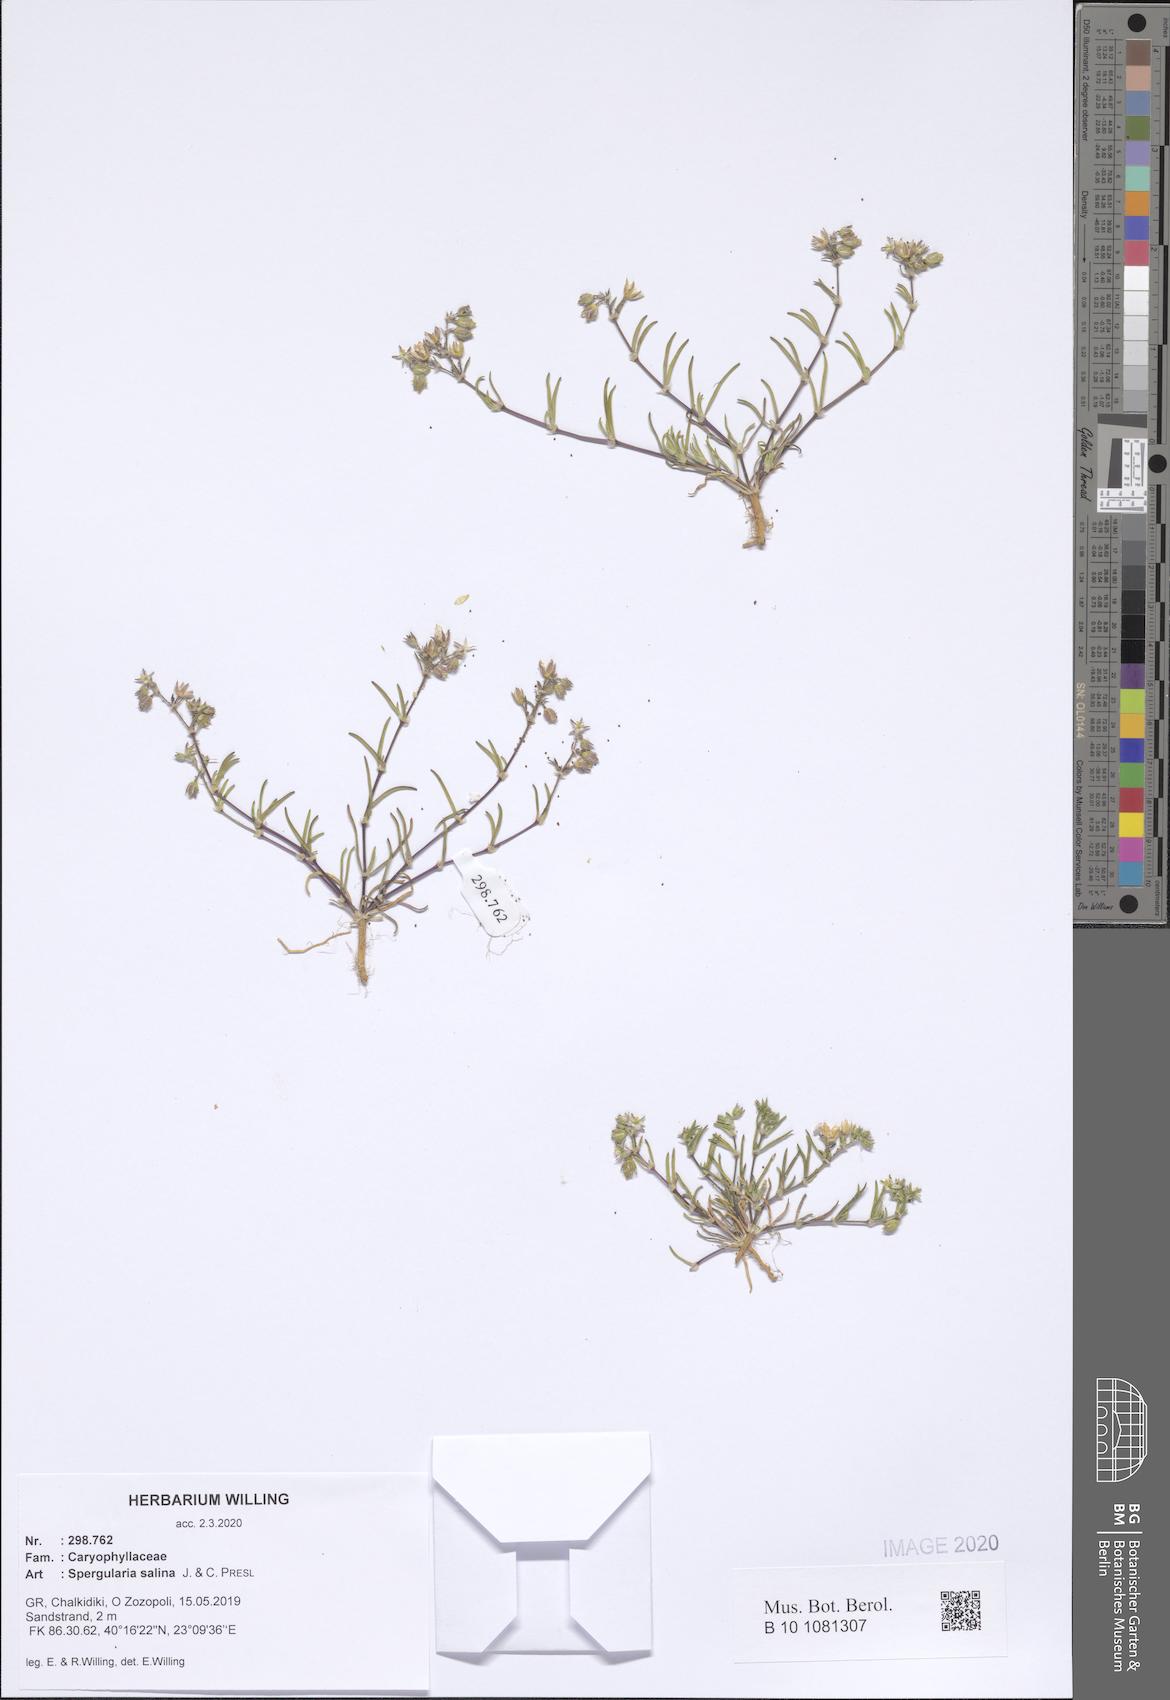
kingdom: Plantae
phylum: Tracheophyta
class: Magnoliopsida
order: Caryophyllales
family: Caryophyllaceae
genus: Spergularia
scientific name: Spergularia marina
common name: Lesser sea-spurrey
